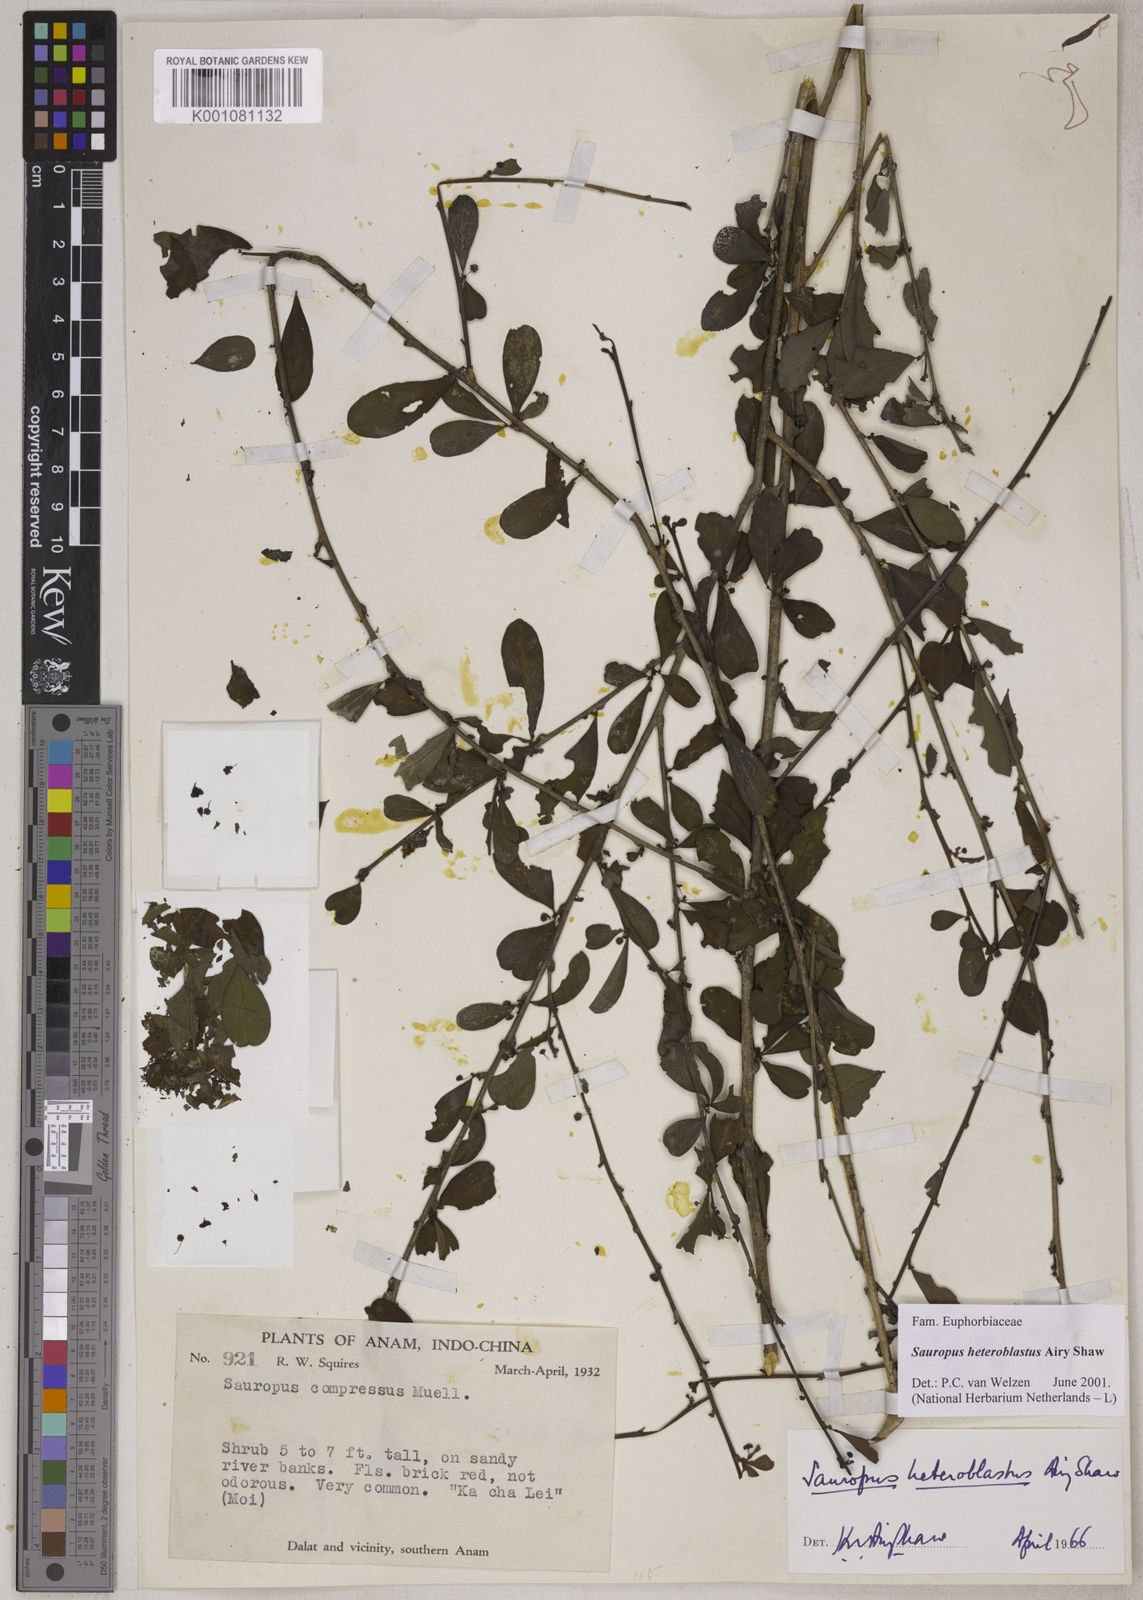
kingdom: Plantae
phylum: Tracheophyta
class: Magnoliopsida
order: Malpighiales
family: Phyllanthaceae
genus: Breynia
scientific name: Breynia heteroblasta
